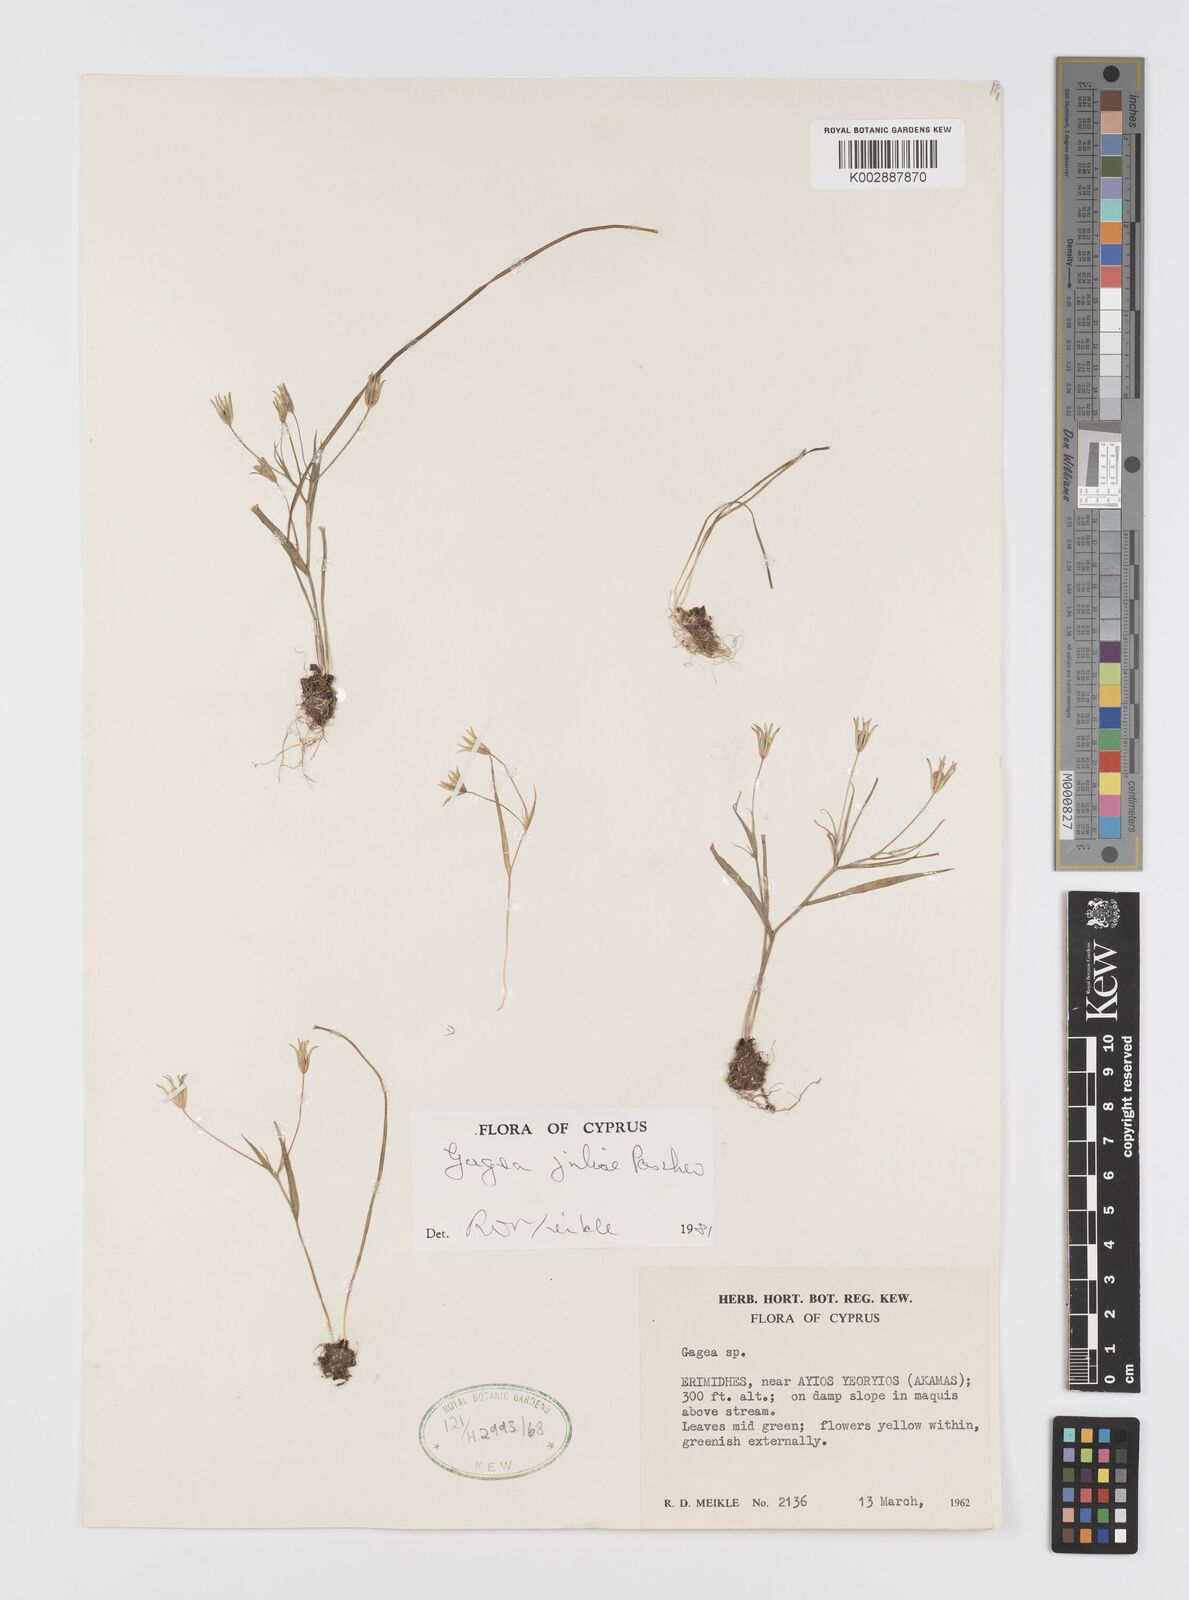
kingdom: Plantae
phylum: Tracheophyta
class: Liliopsida
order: Liliales
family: Liliaceae
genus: Gagea
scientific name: Gagea juliae
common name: Julia’s gagea
